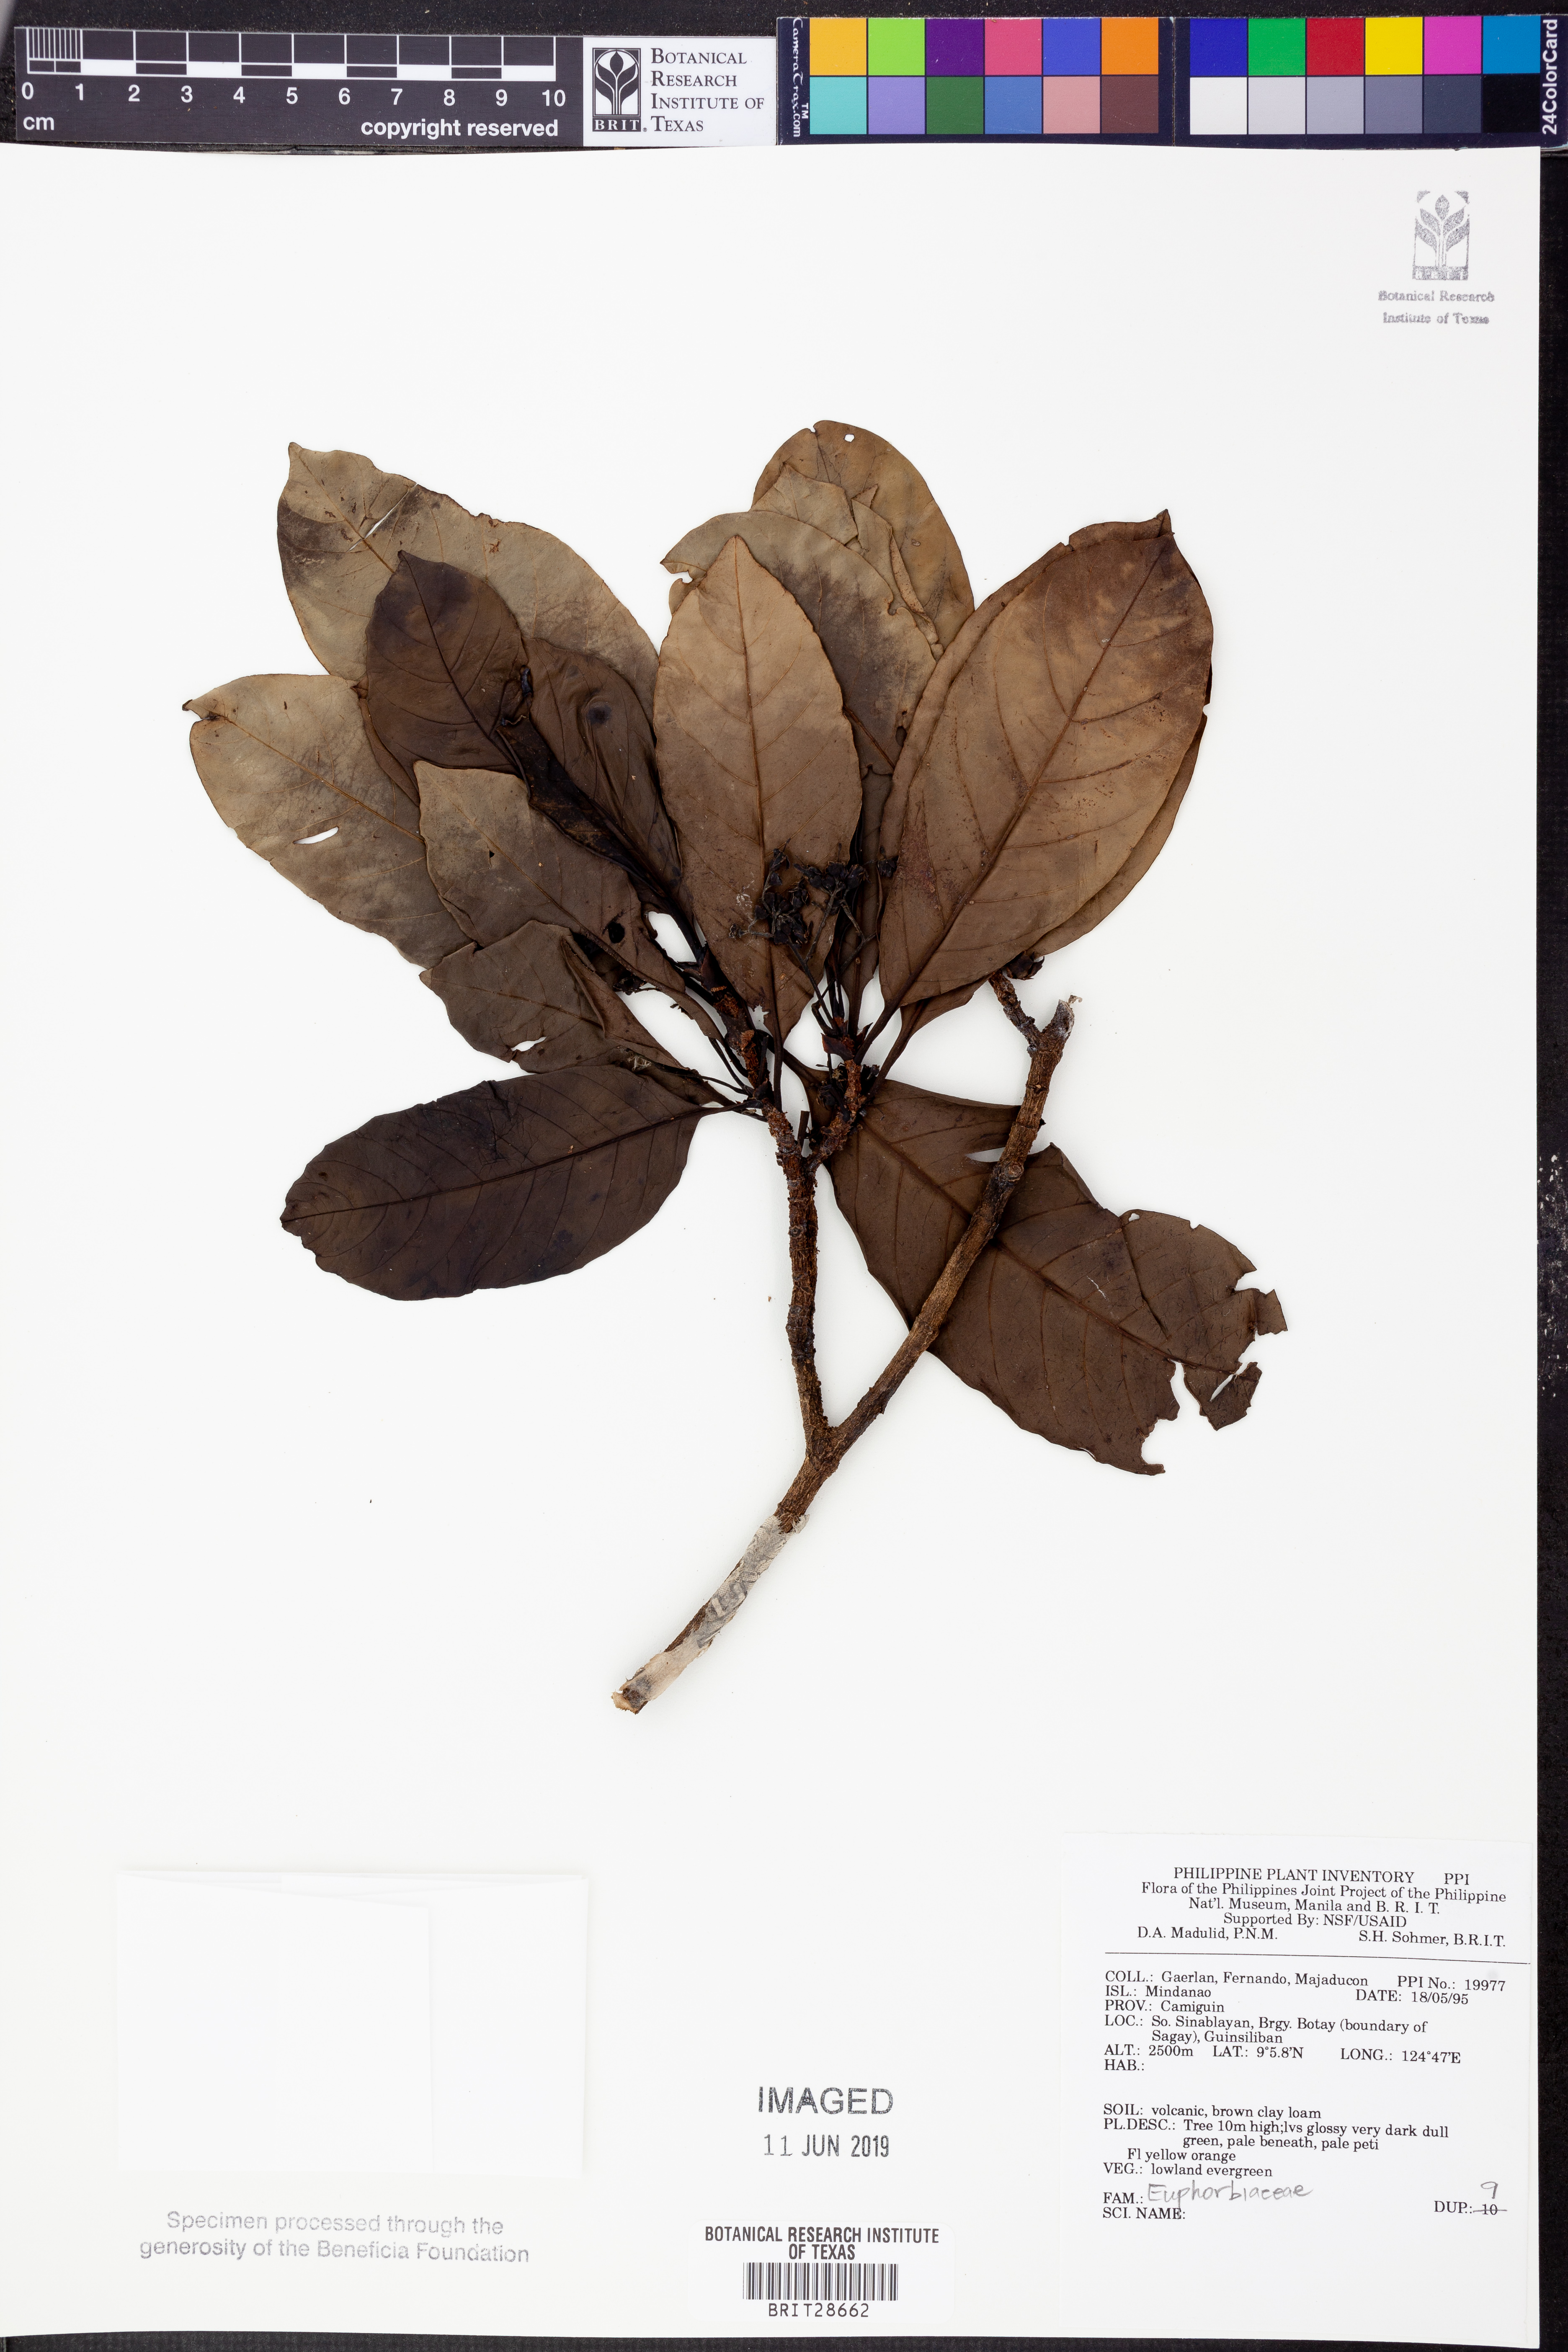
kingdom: Plantae
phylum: Tracheophyta
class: Magnoliopsida
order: Malpighiales
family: Euphorbiaceae
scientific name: Euphorbiaceae
